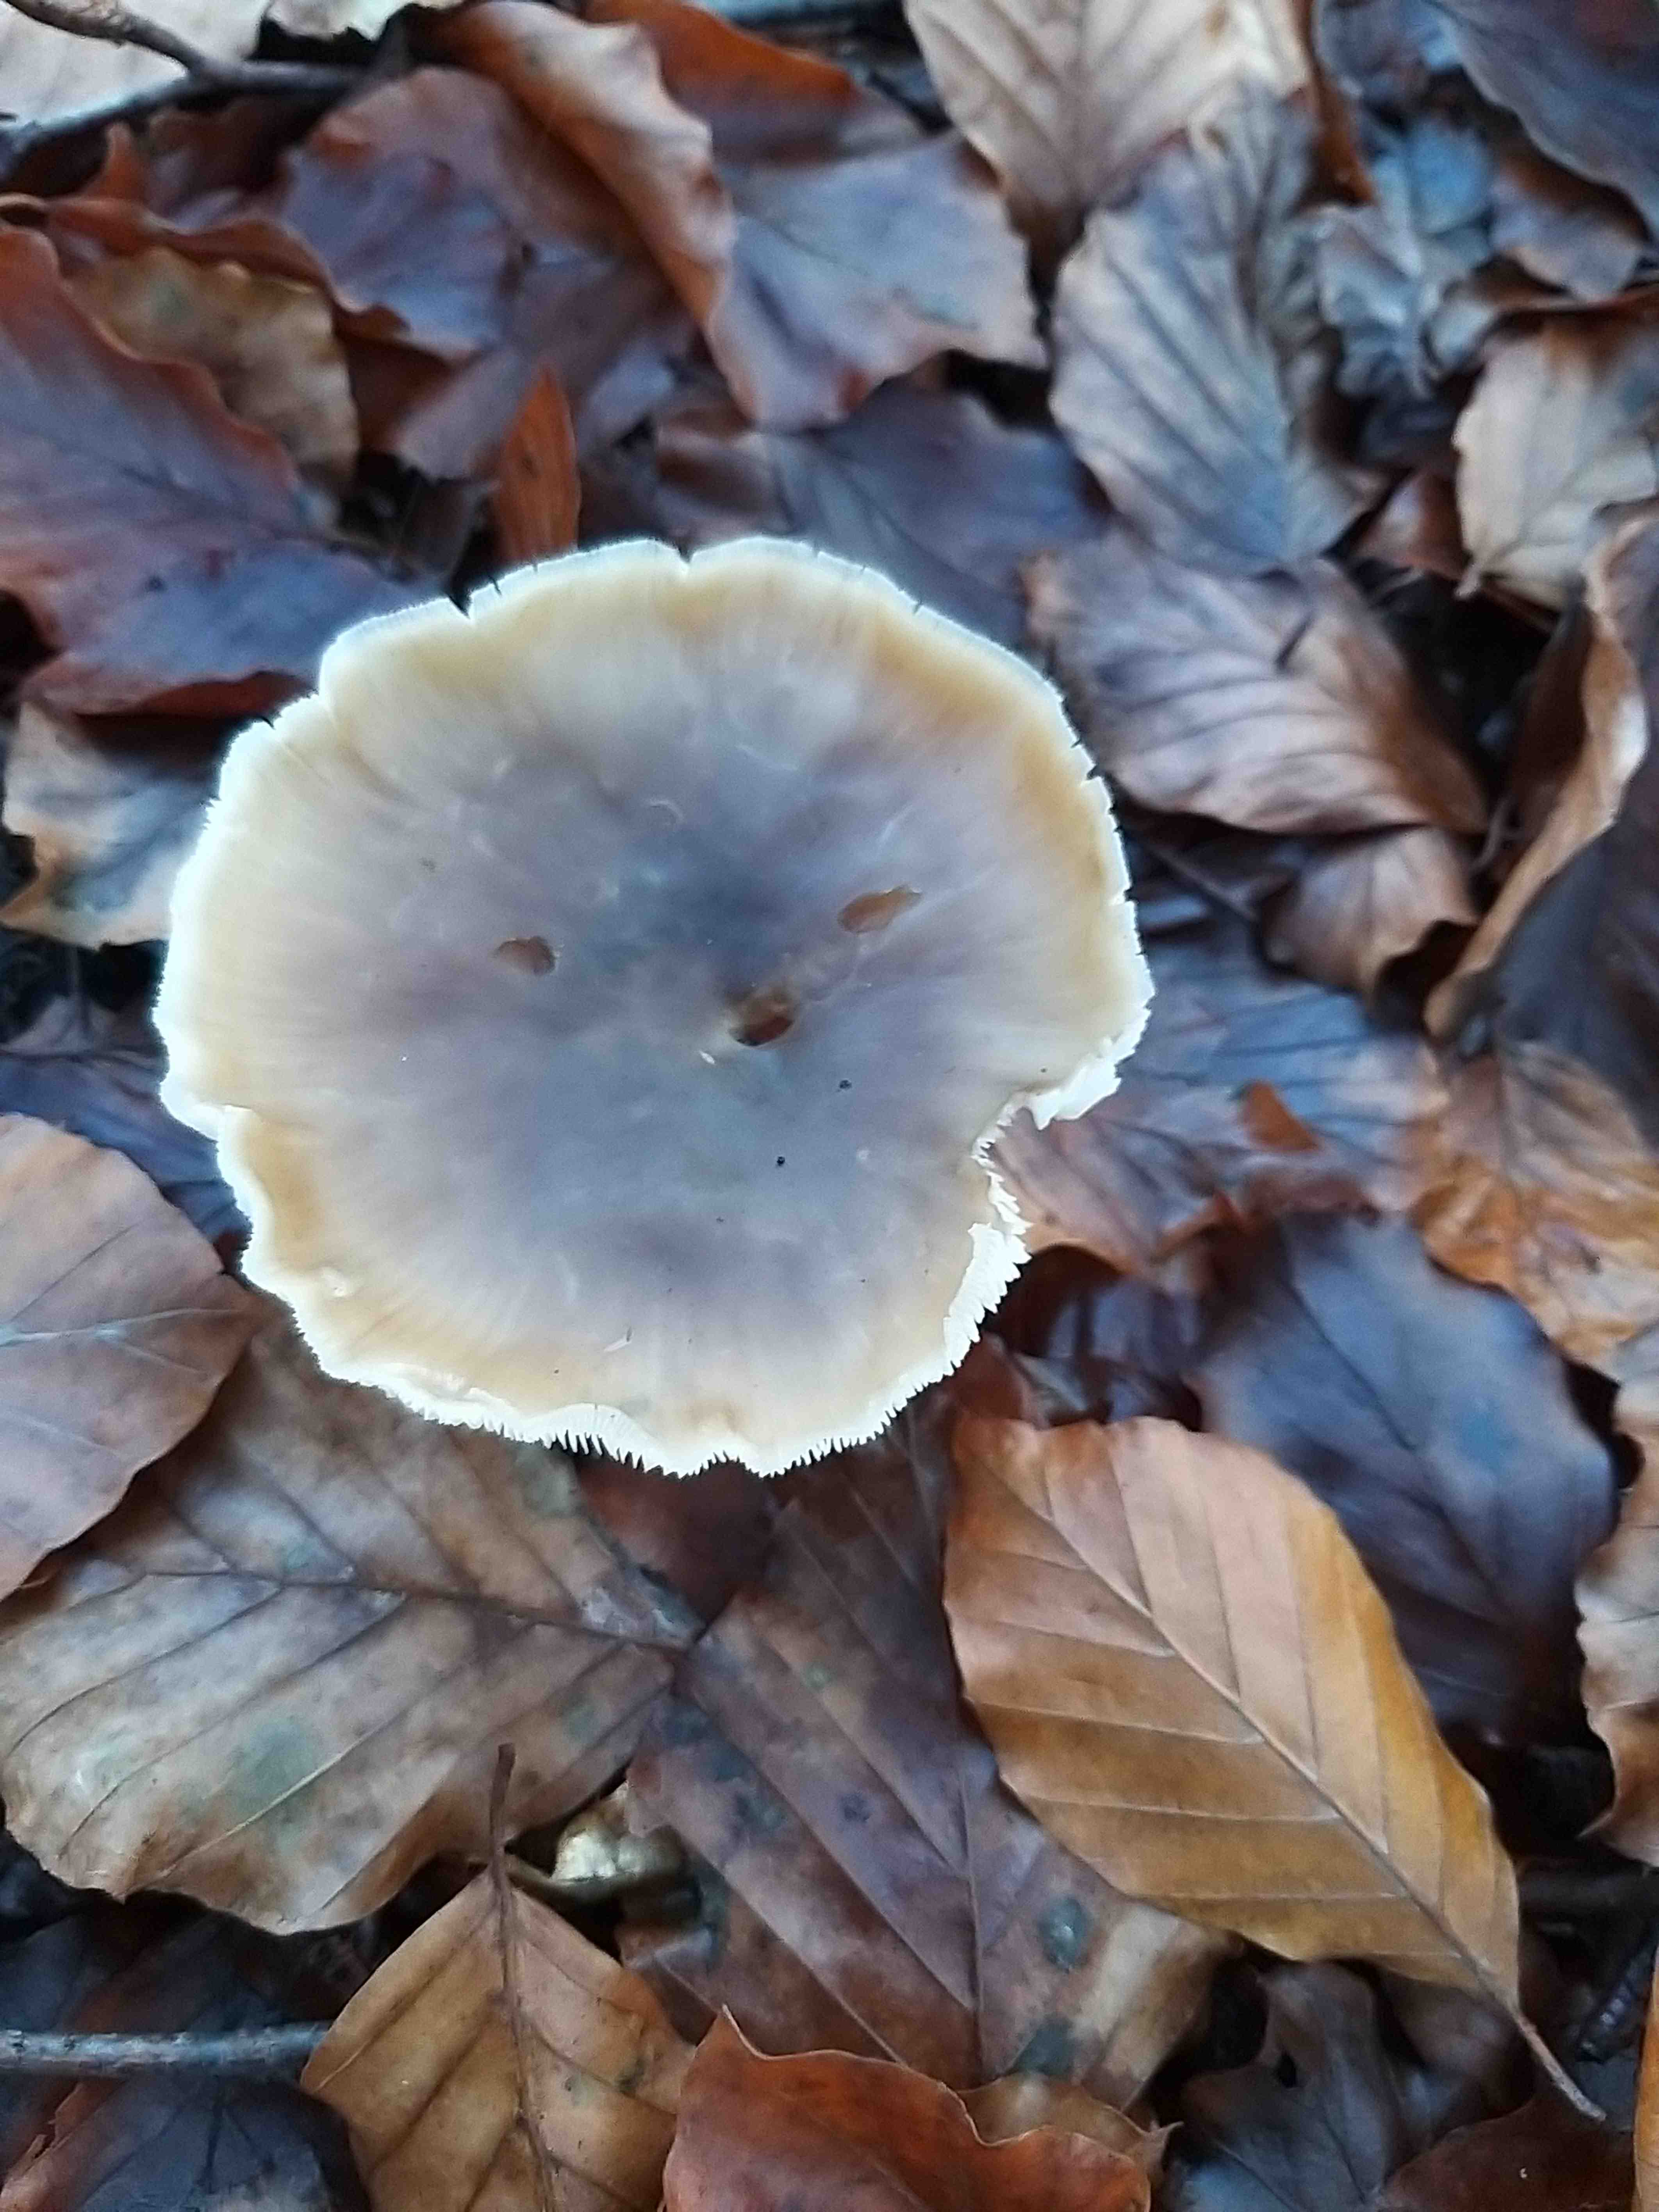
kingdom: Fungi
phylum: Basidiomycota
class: Agaricomycetes
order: Agaricales
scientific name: Agaricales
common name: champignonordenen
